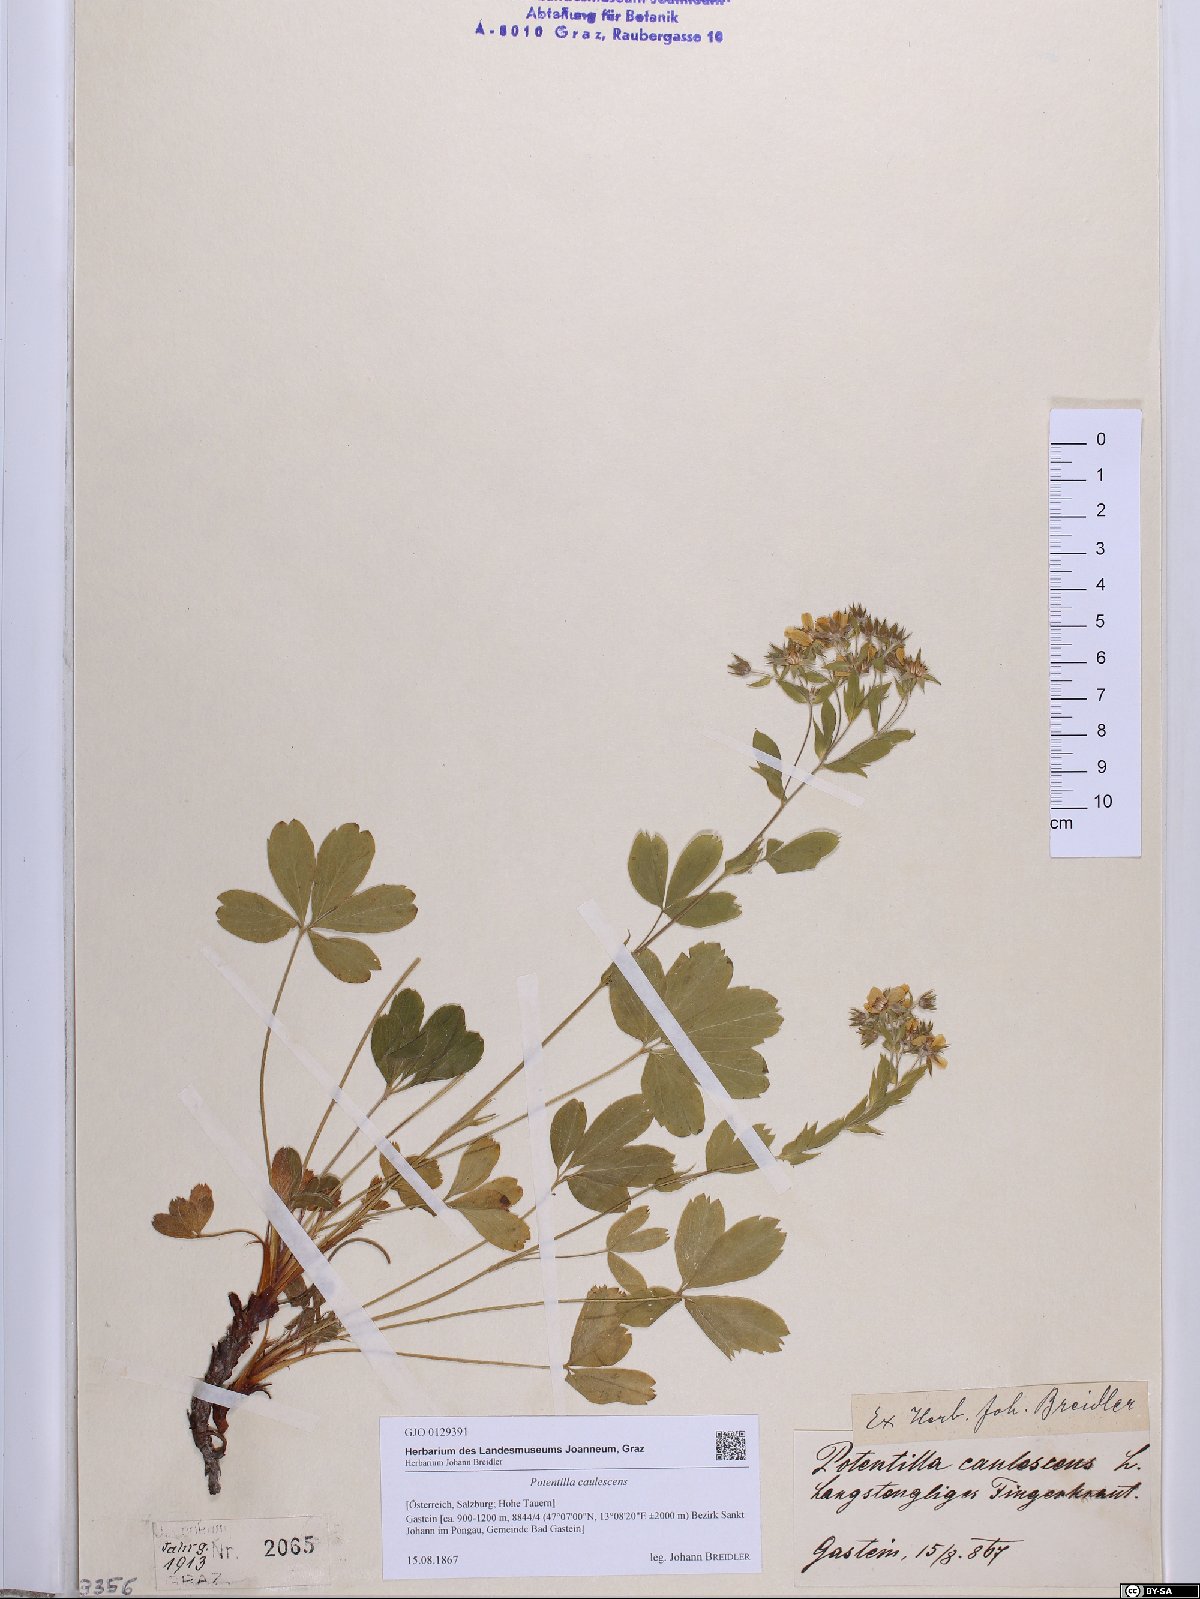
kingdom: Plantae
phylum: Tracheophyta
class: Magnoliopsida
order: Rosales
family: Rosaceae
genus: Potentilla
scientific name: Potentilla caulescens
